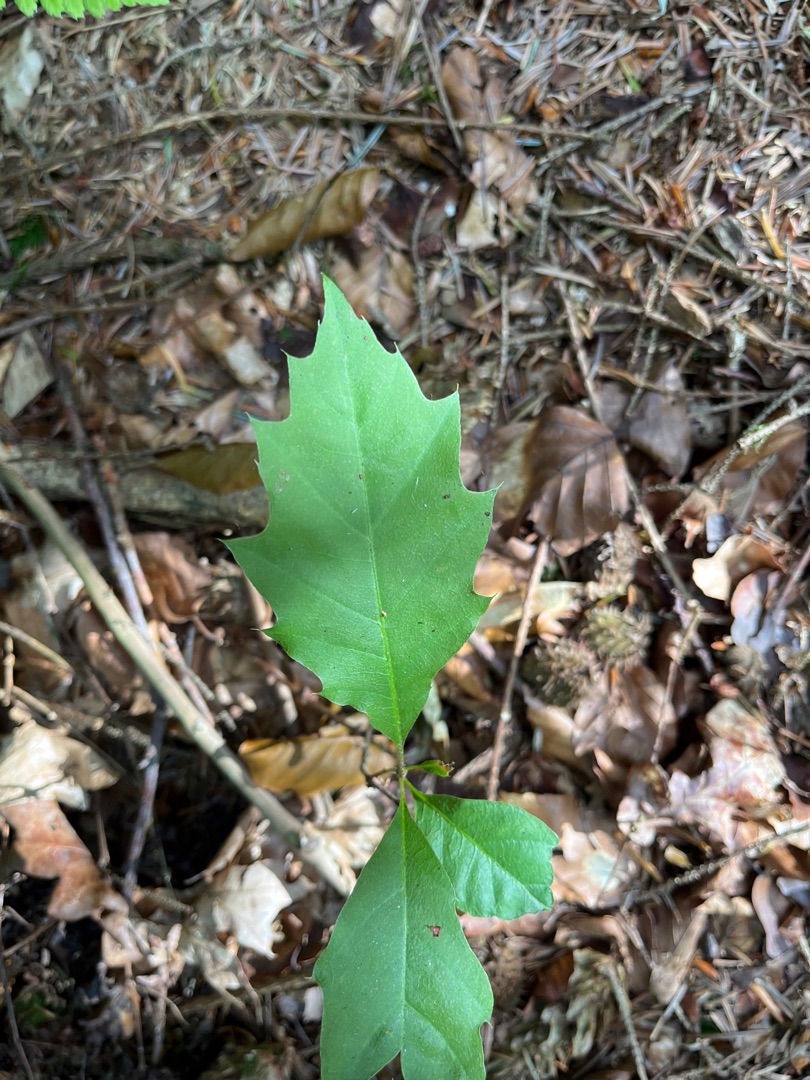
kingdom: Plantae
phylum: Tracheophyta
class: Magnoliopsida
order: Fagales
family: Fagaceae
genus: Quercus
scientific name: Quercus rubra
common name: Rød-eg
